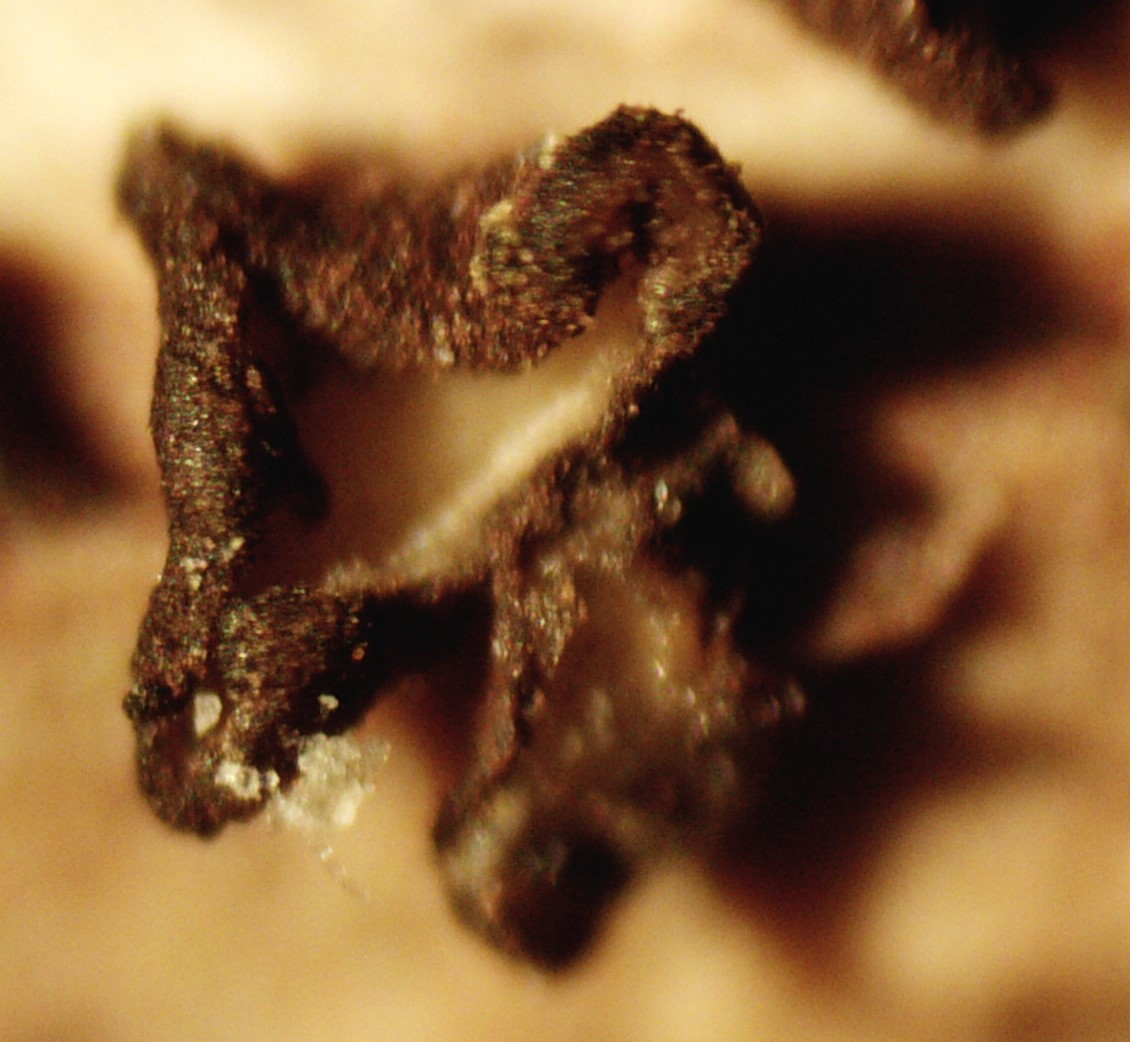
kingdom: Fungi
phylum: Ascomycota
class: Leotiomycetes
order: Helotiales
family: Mollisiaceae
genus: Mollisia
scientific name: Mollisia
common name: gråskive
